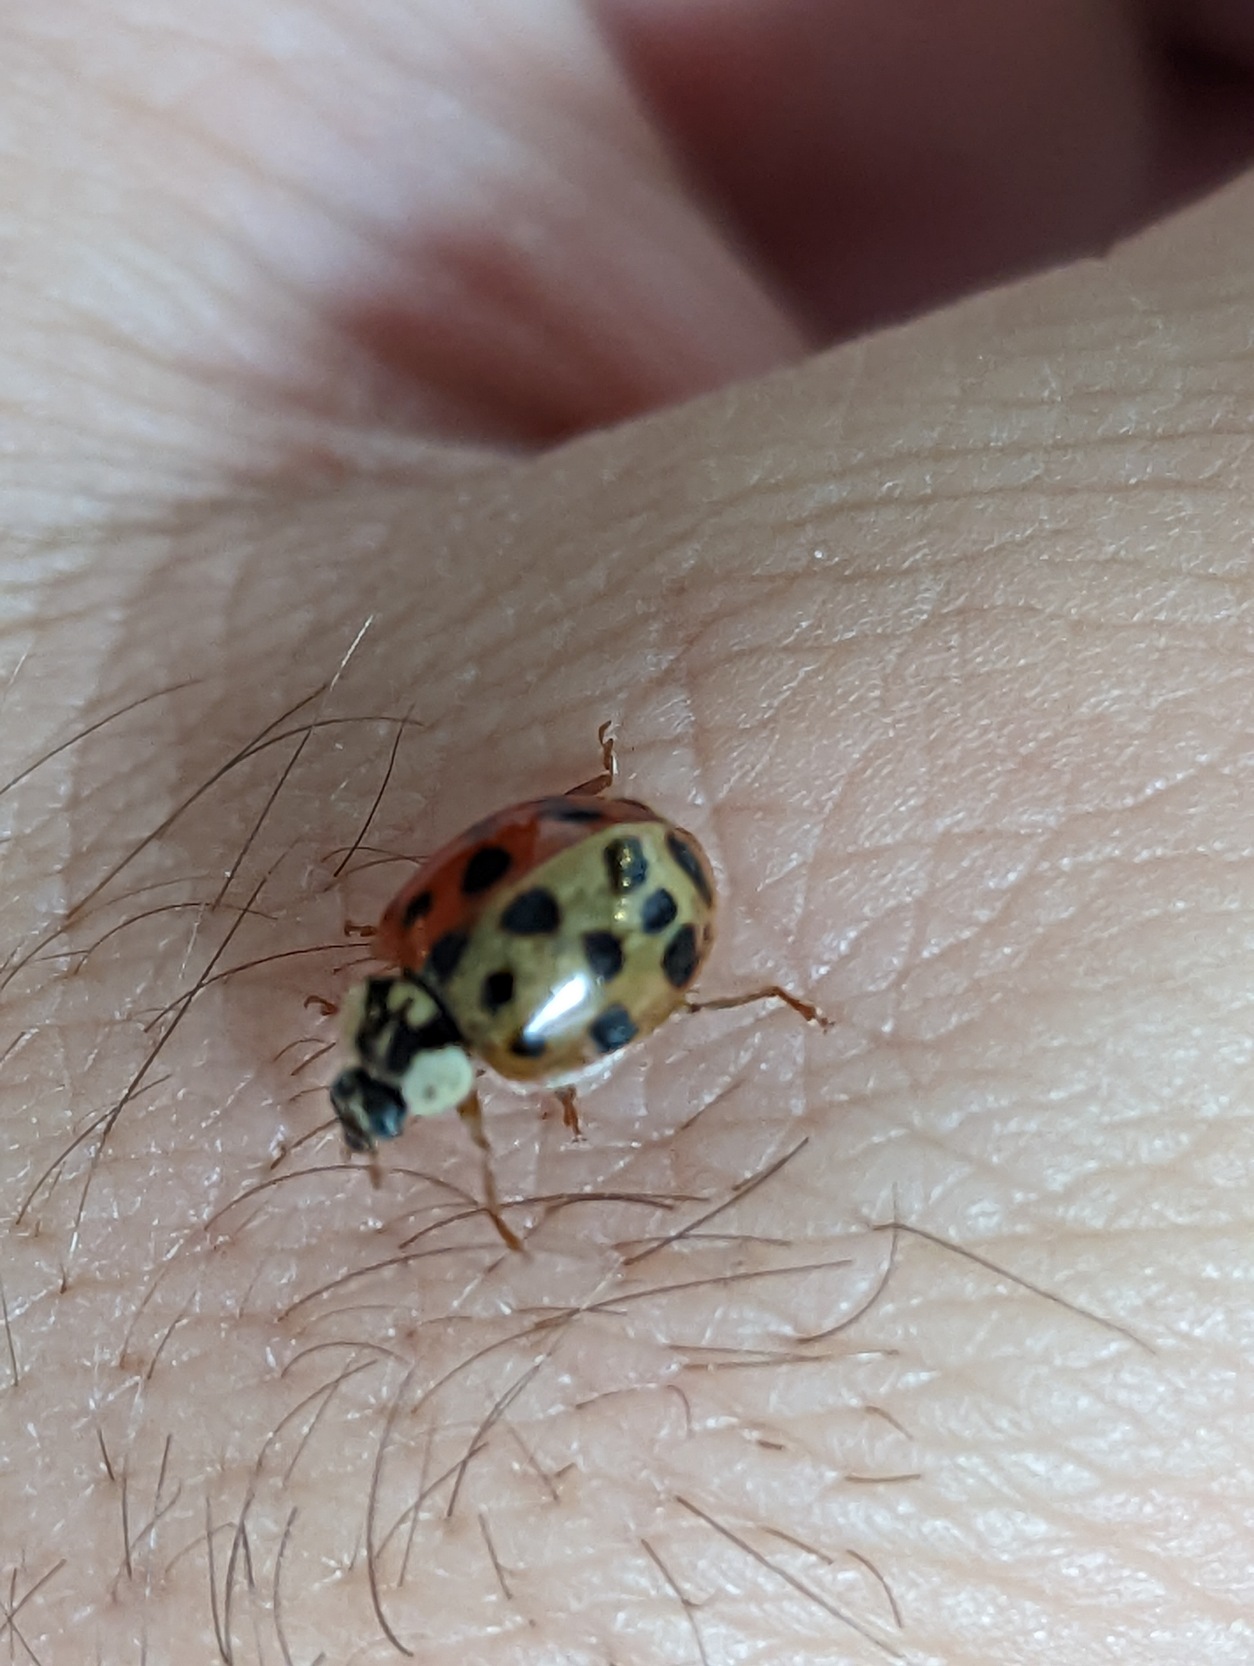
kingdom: Animalia
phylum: Arthropoda
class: Insecta
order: Coleoptera
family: Coccinellidae
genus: Harmonia
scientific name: Harmonia axyridis
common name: Harlekinmariehøne
